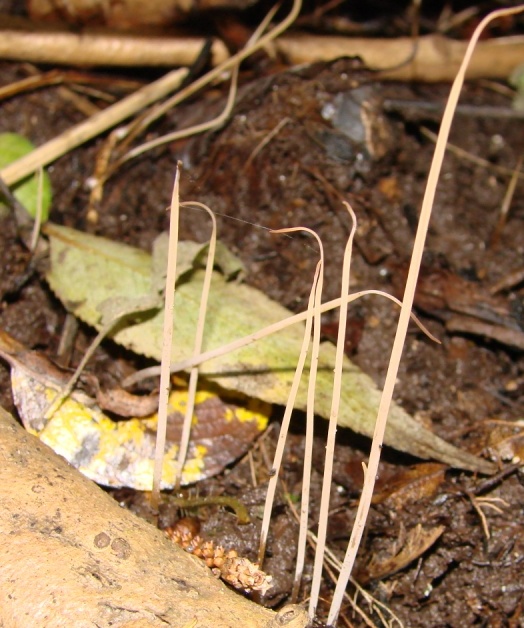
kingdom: Fungi
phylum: Basidiomycota
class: Agaricomycetes
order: Agaricales
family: Typhulaceae
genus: Typhula
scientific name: Typhula juncea
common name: trådagtig rørkølle
